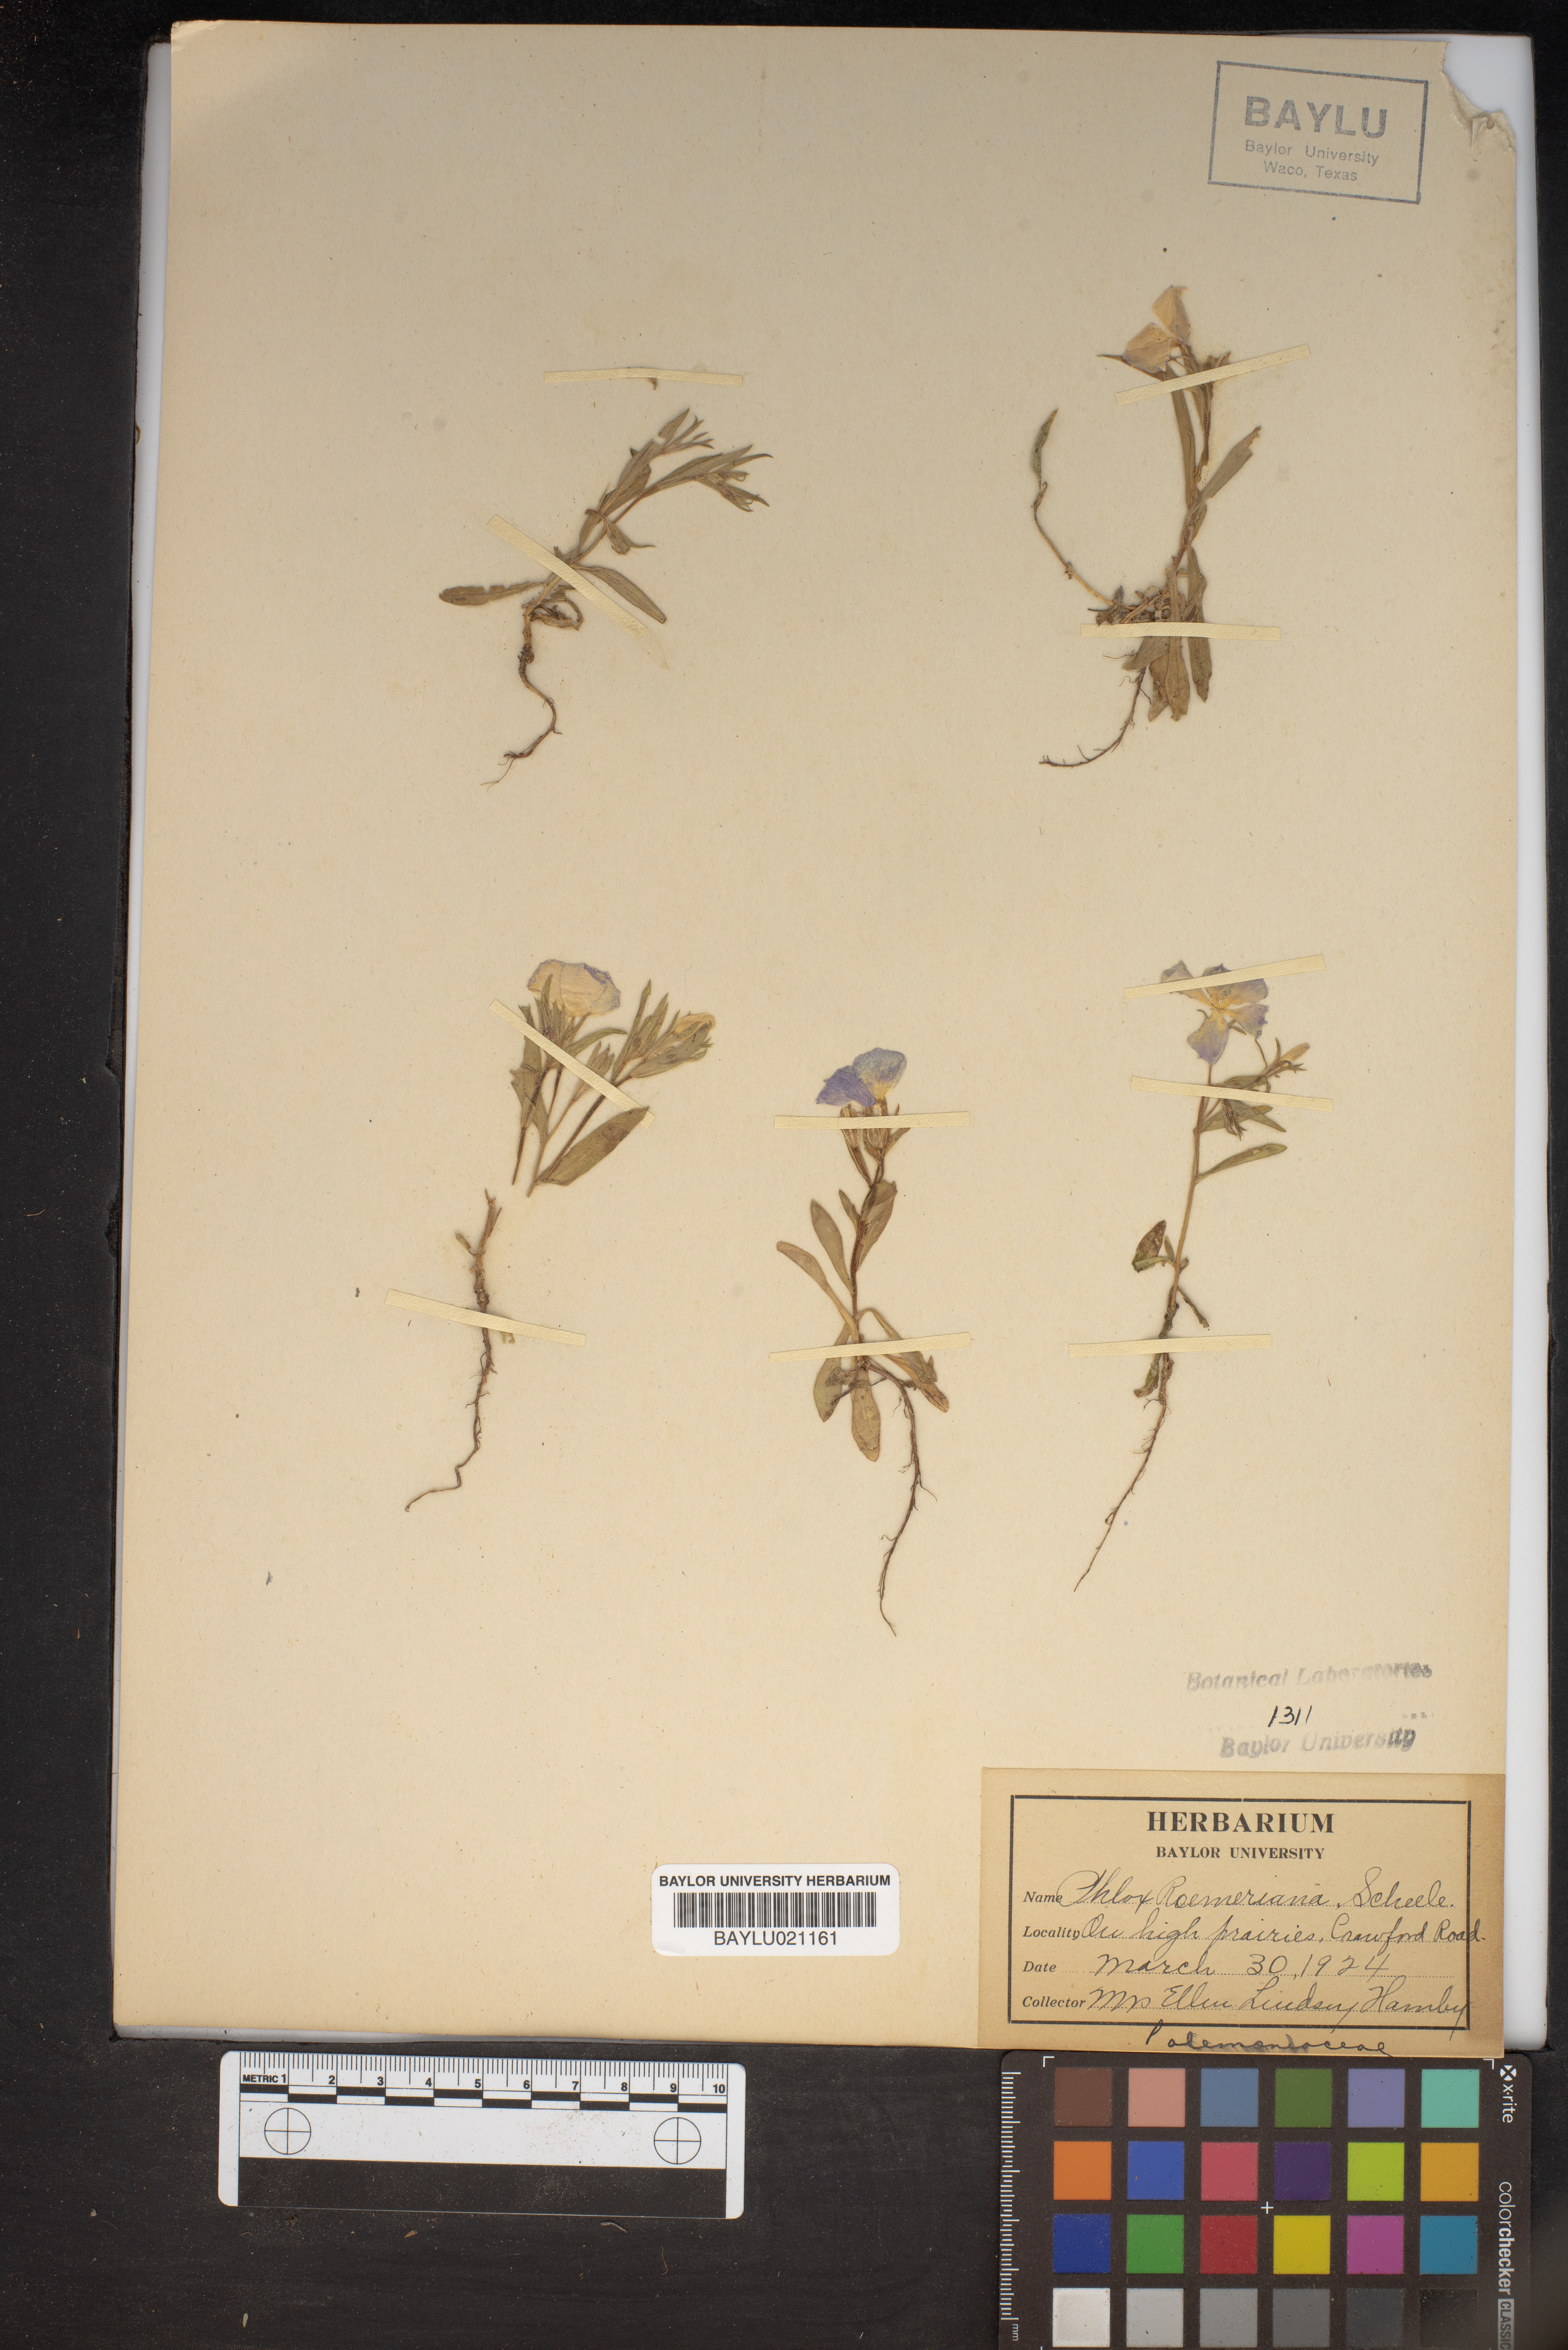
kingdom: Plantae
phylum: Tracheophyta
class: Magnoliopsida
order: Ericales
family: Polemoniaceae
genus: Phlox
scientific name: Phlox roemeriana
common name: Roemer's phlox
